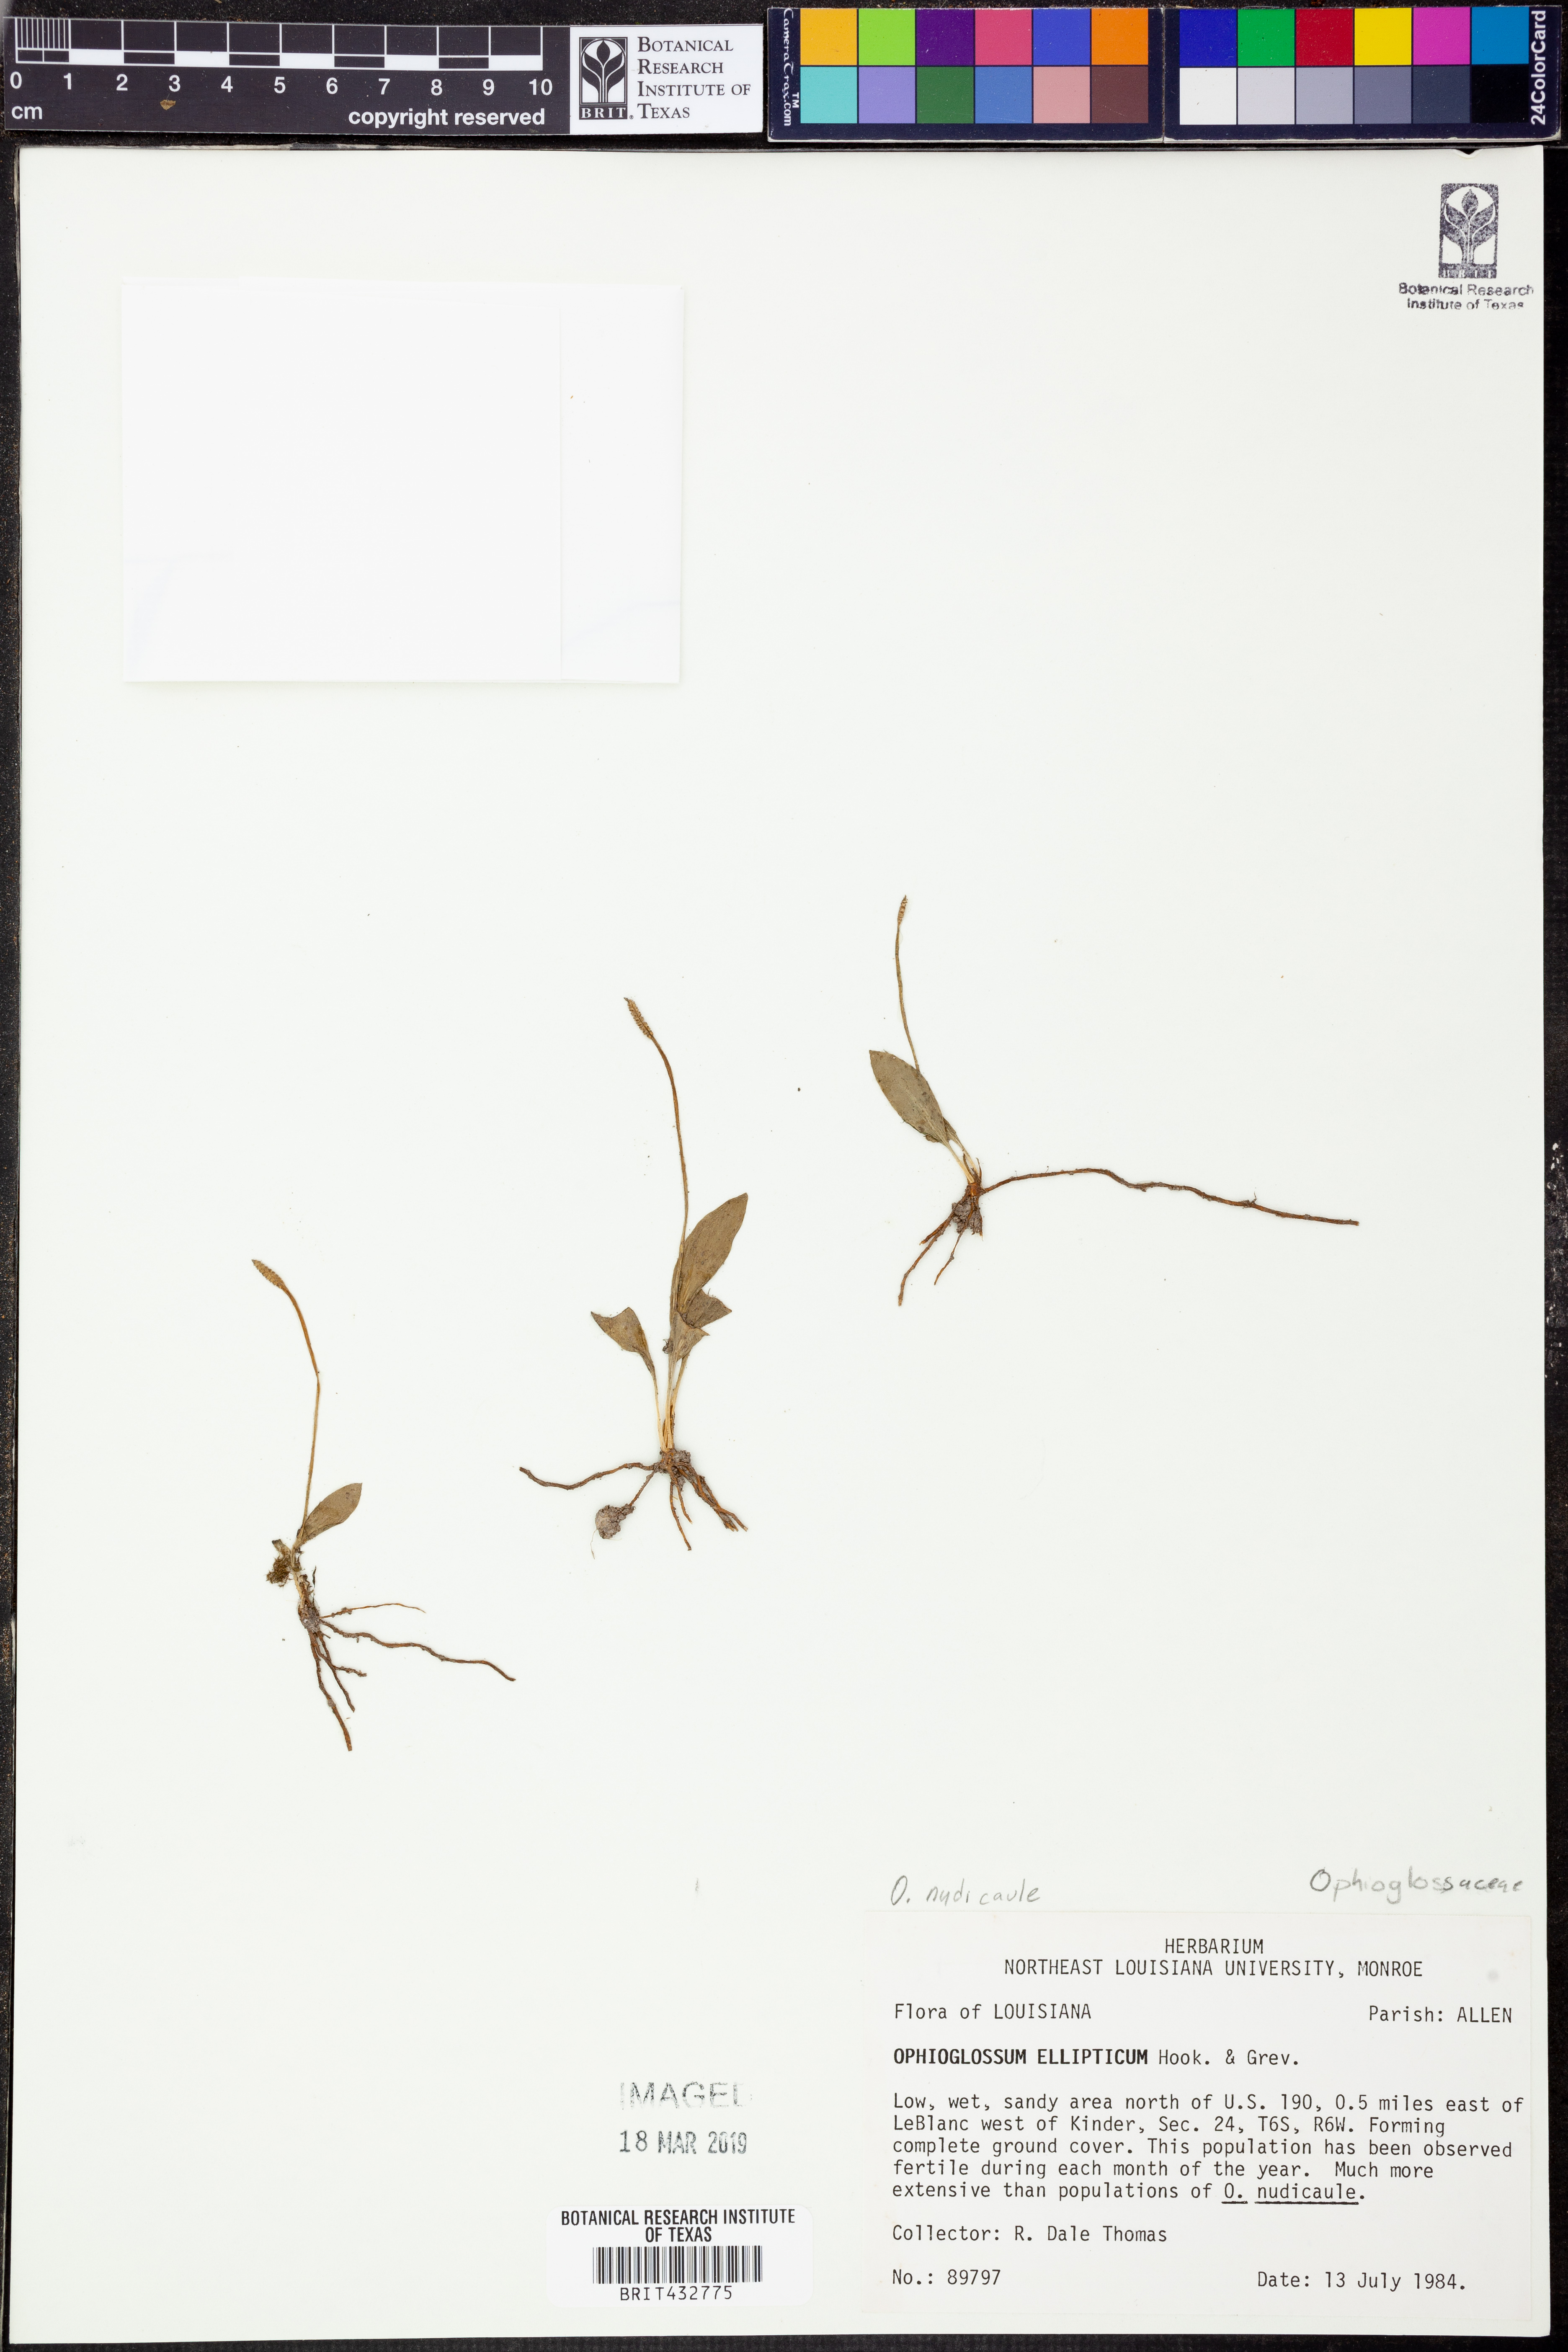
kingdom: Plantae
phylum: Tracheophyta
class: Polypodiopsida
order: Ophioglossales
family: Ophioglossaceae
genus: Ophioglossum
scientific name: Ophioglossum nudicaule
